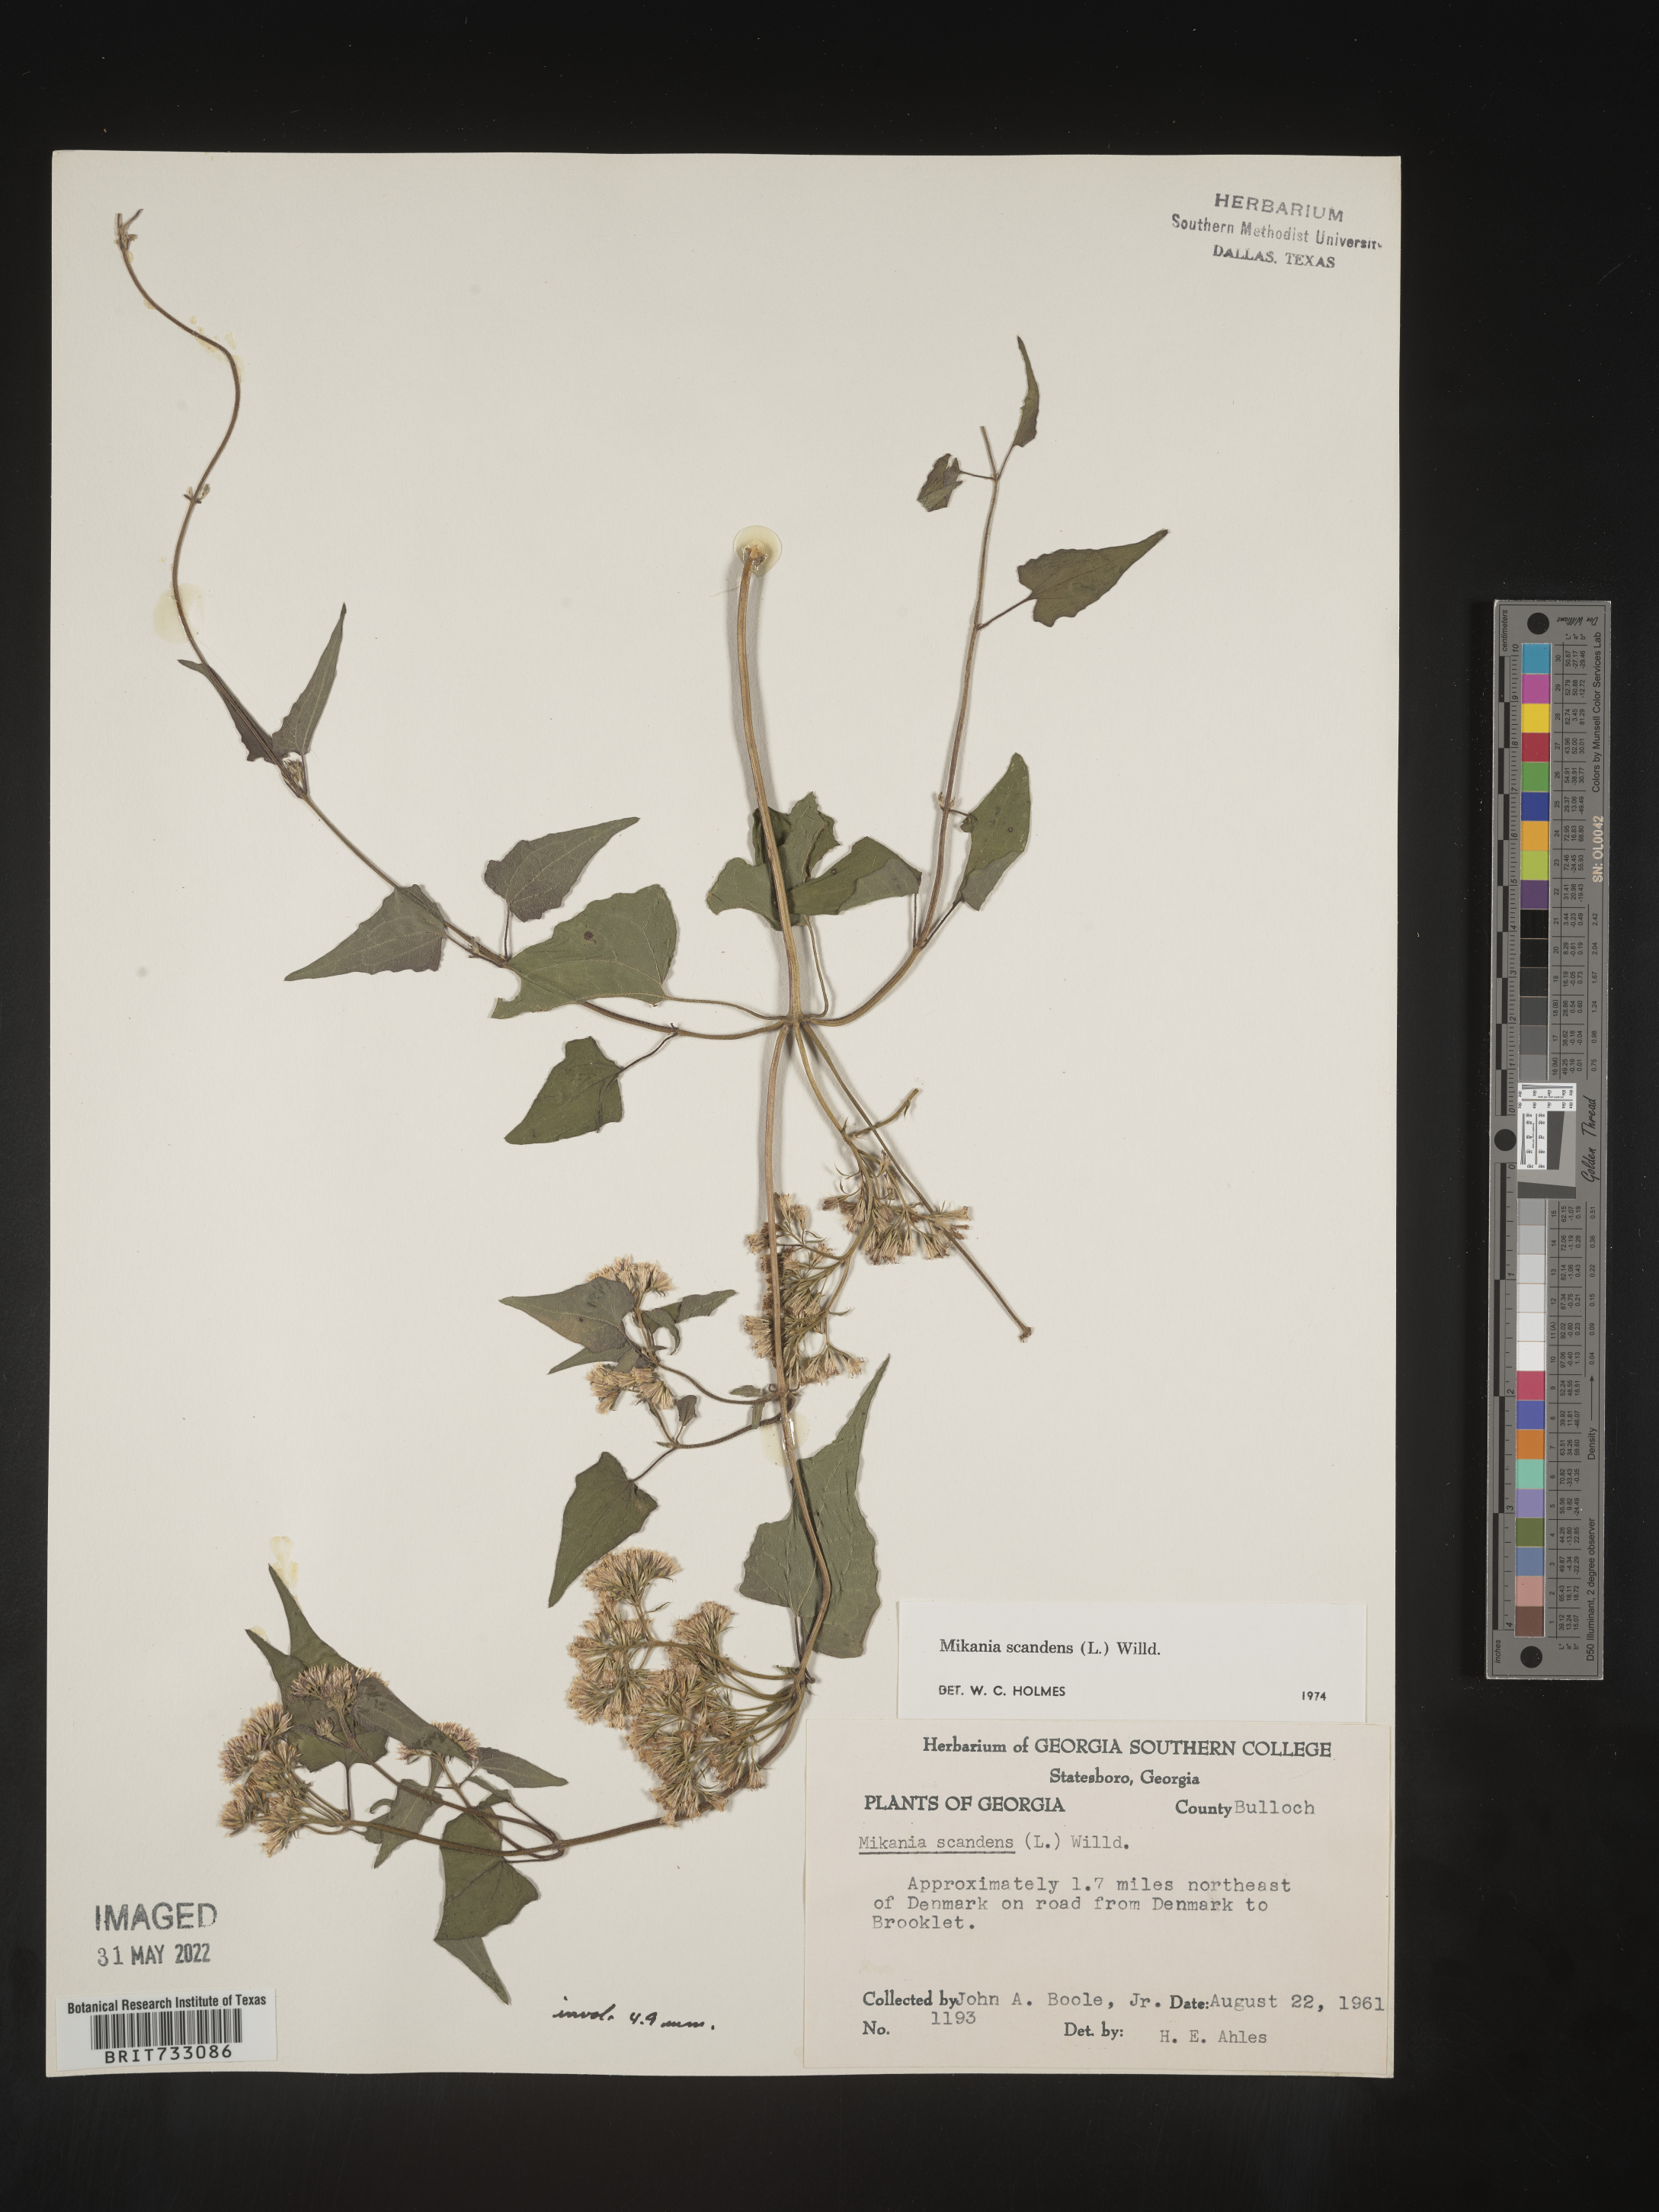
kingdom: Plantae
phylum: Tracheophyta
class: Magnoliopsida
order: Asterales
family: Asteraceae
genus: Mikania
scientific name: Mikania scandens
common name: Climbing hempvine
